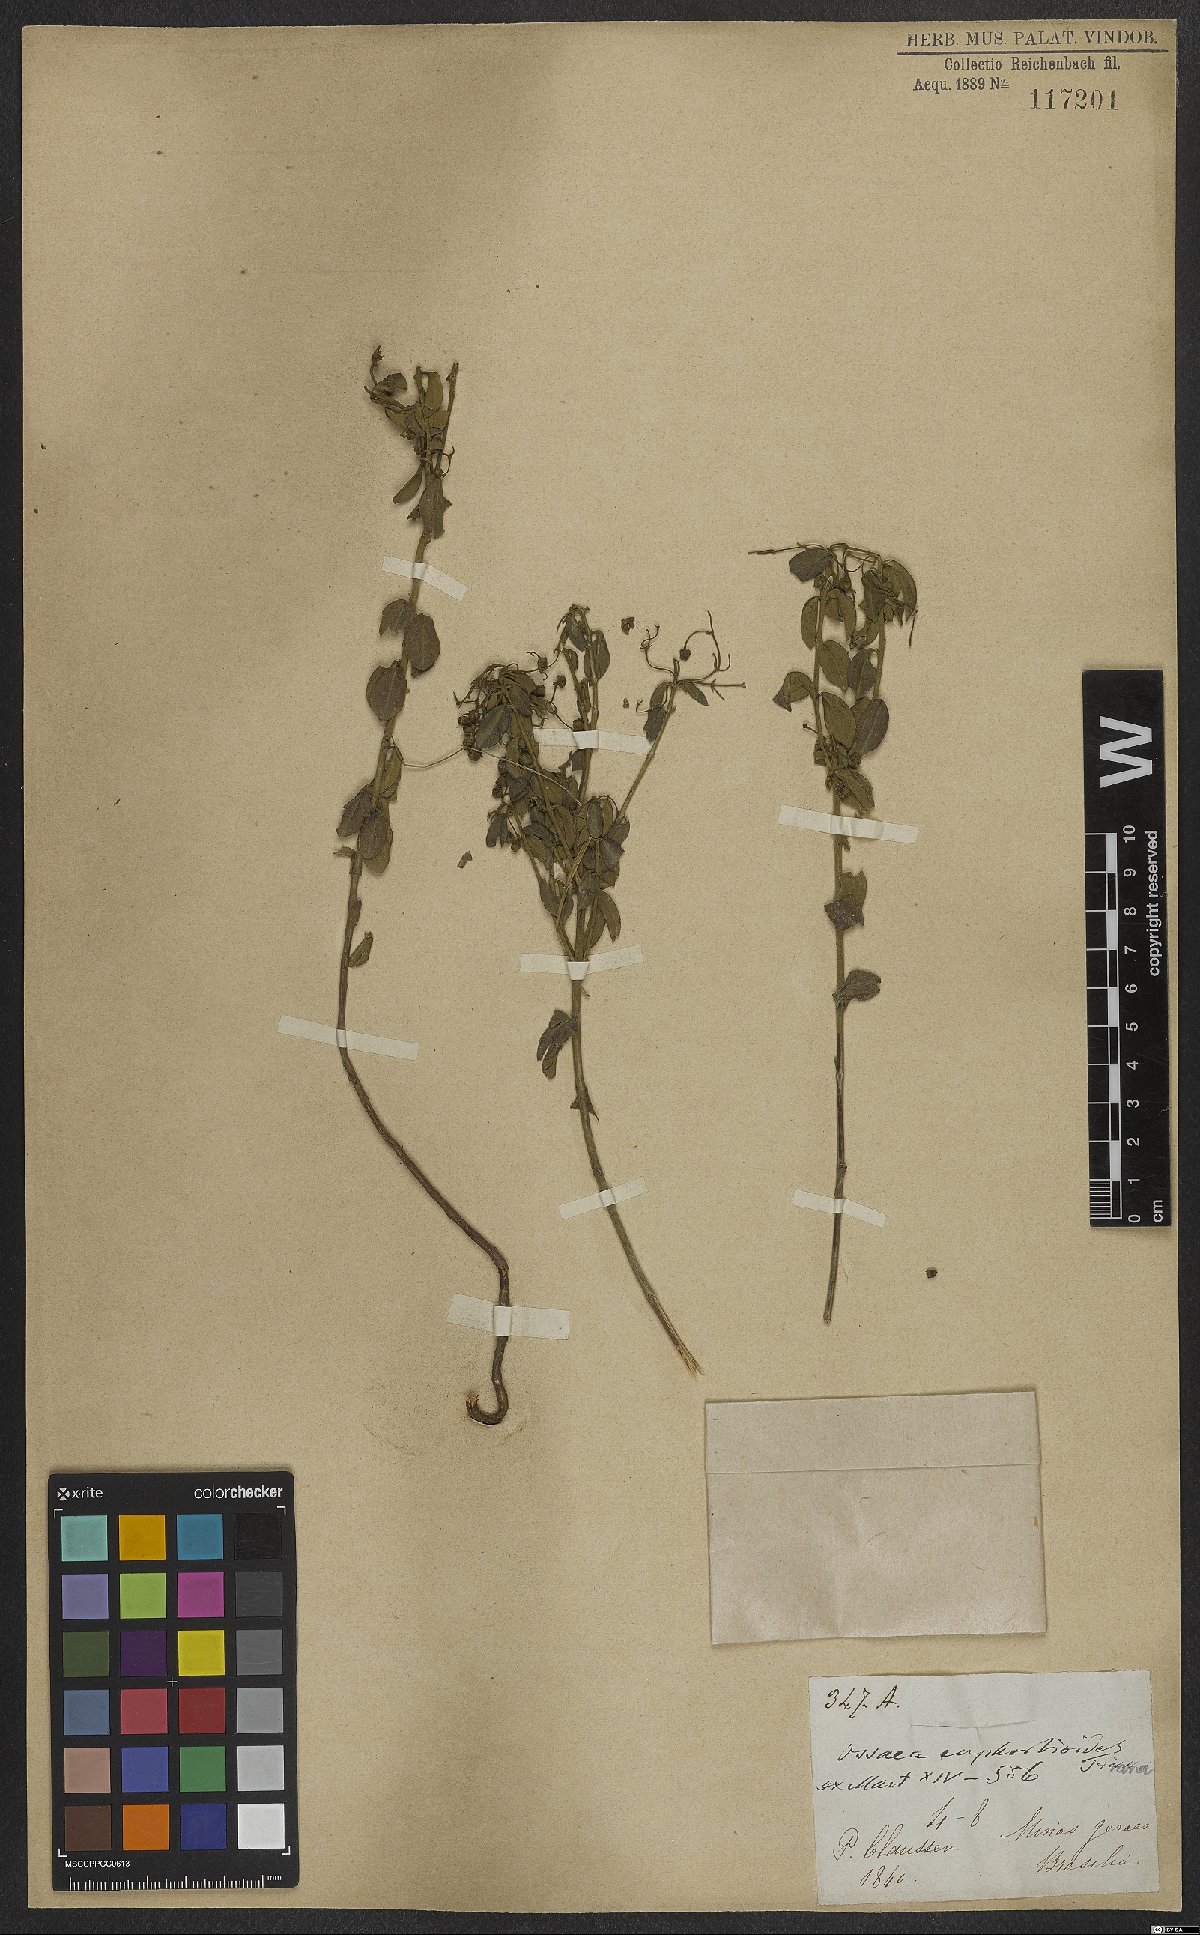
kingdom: Plantae
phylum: Tracheophyta
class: Magnoliopsida
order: Myrtales
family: Melastomataceae
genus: Miconia
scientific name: Miconia euphorbioides
